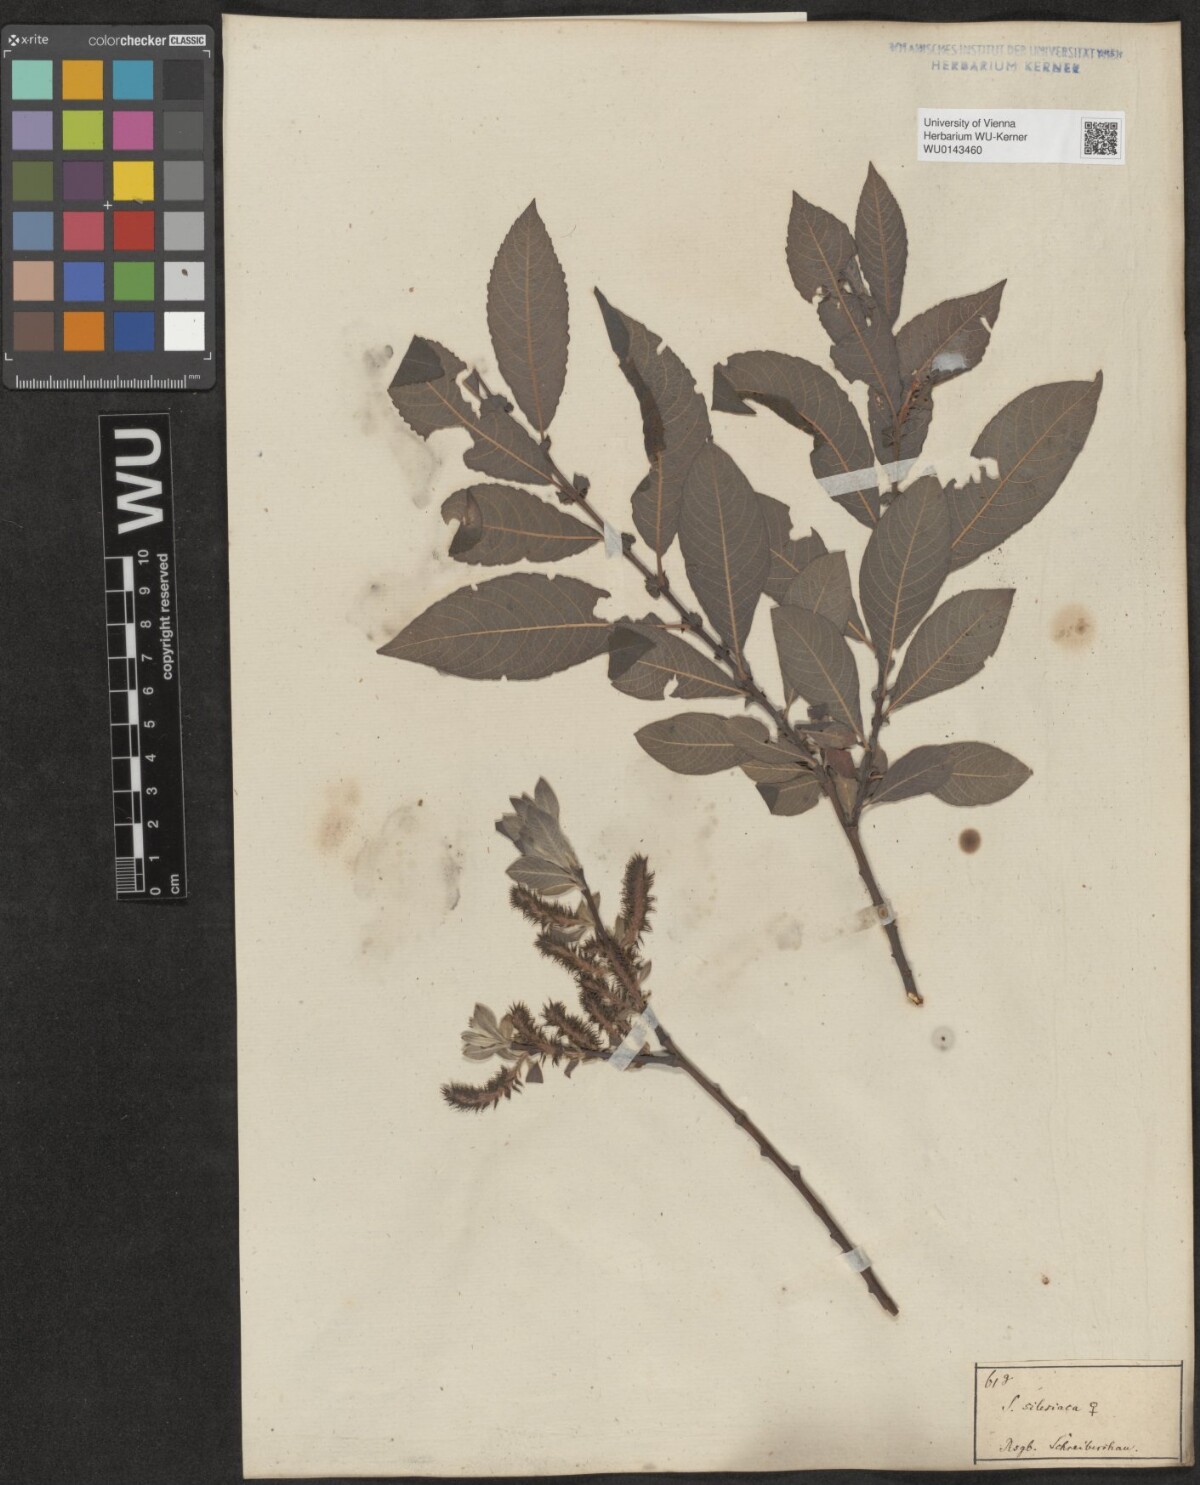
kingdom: Plantae
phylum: Tracheophyta
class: Magnoliopsida
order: Malpighiales
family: Salicaceae
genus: Salix
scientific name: Salix silesiaca
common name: Silesian willow
